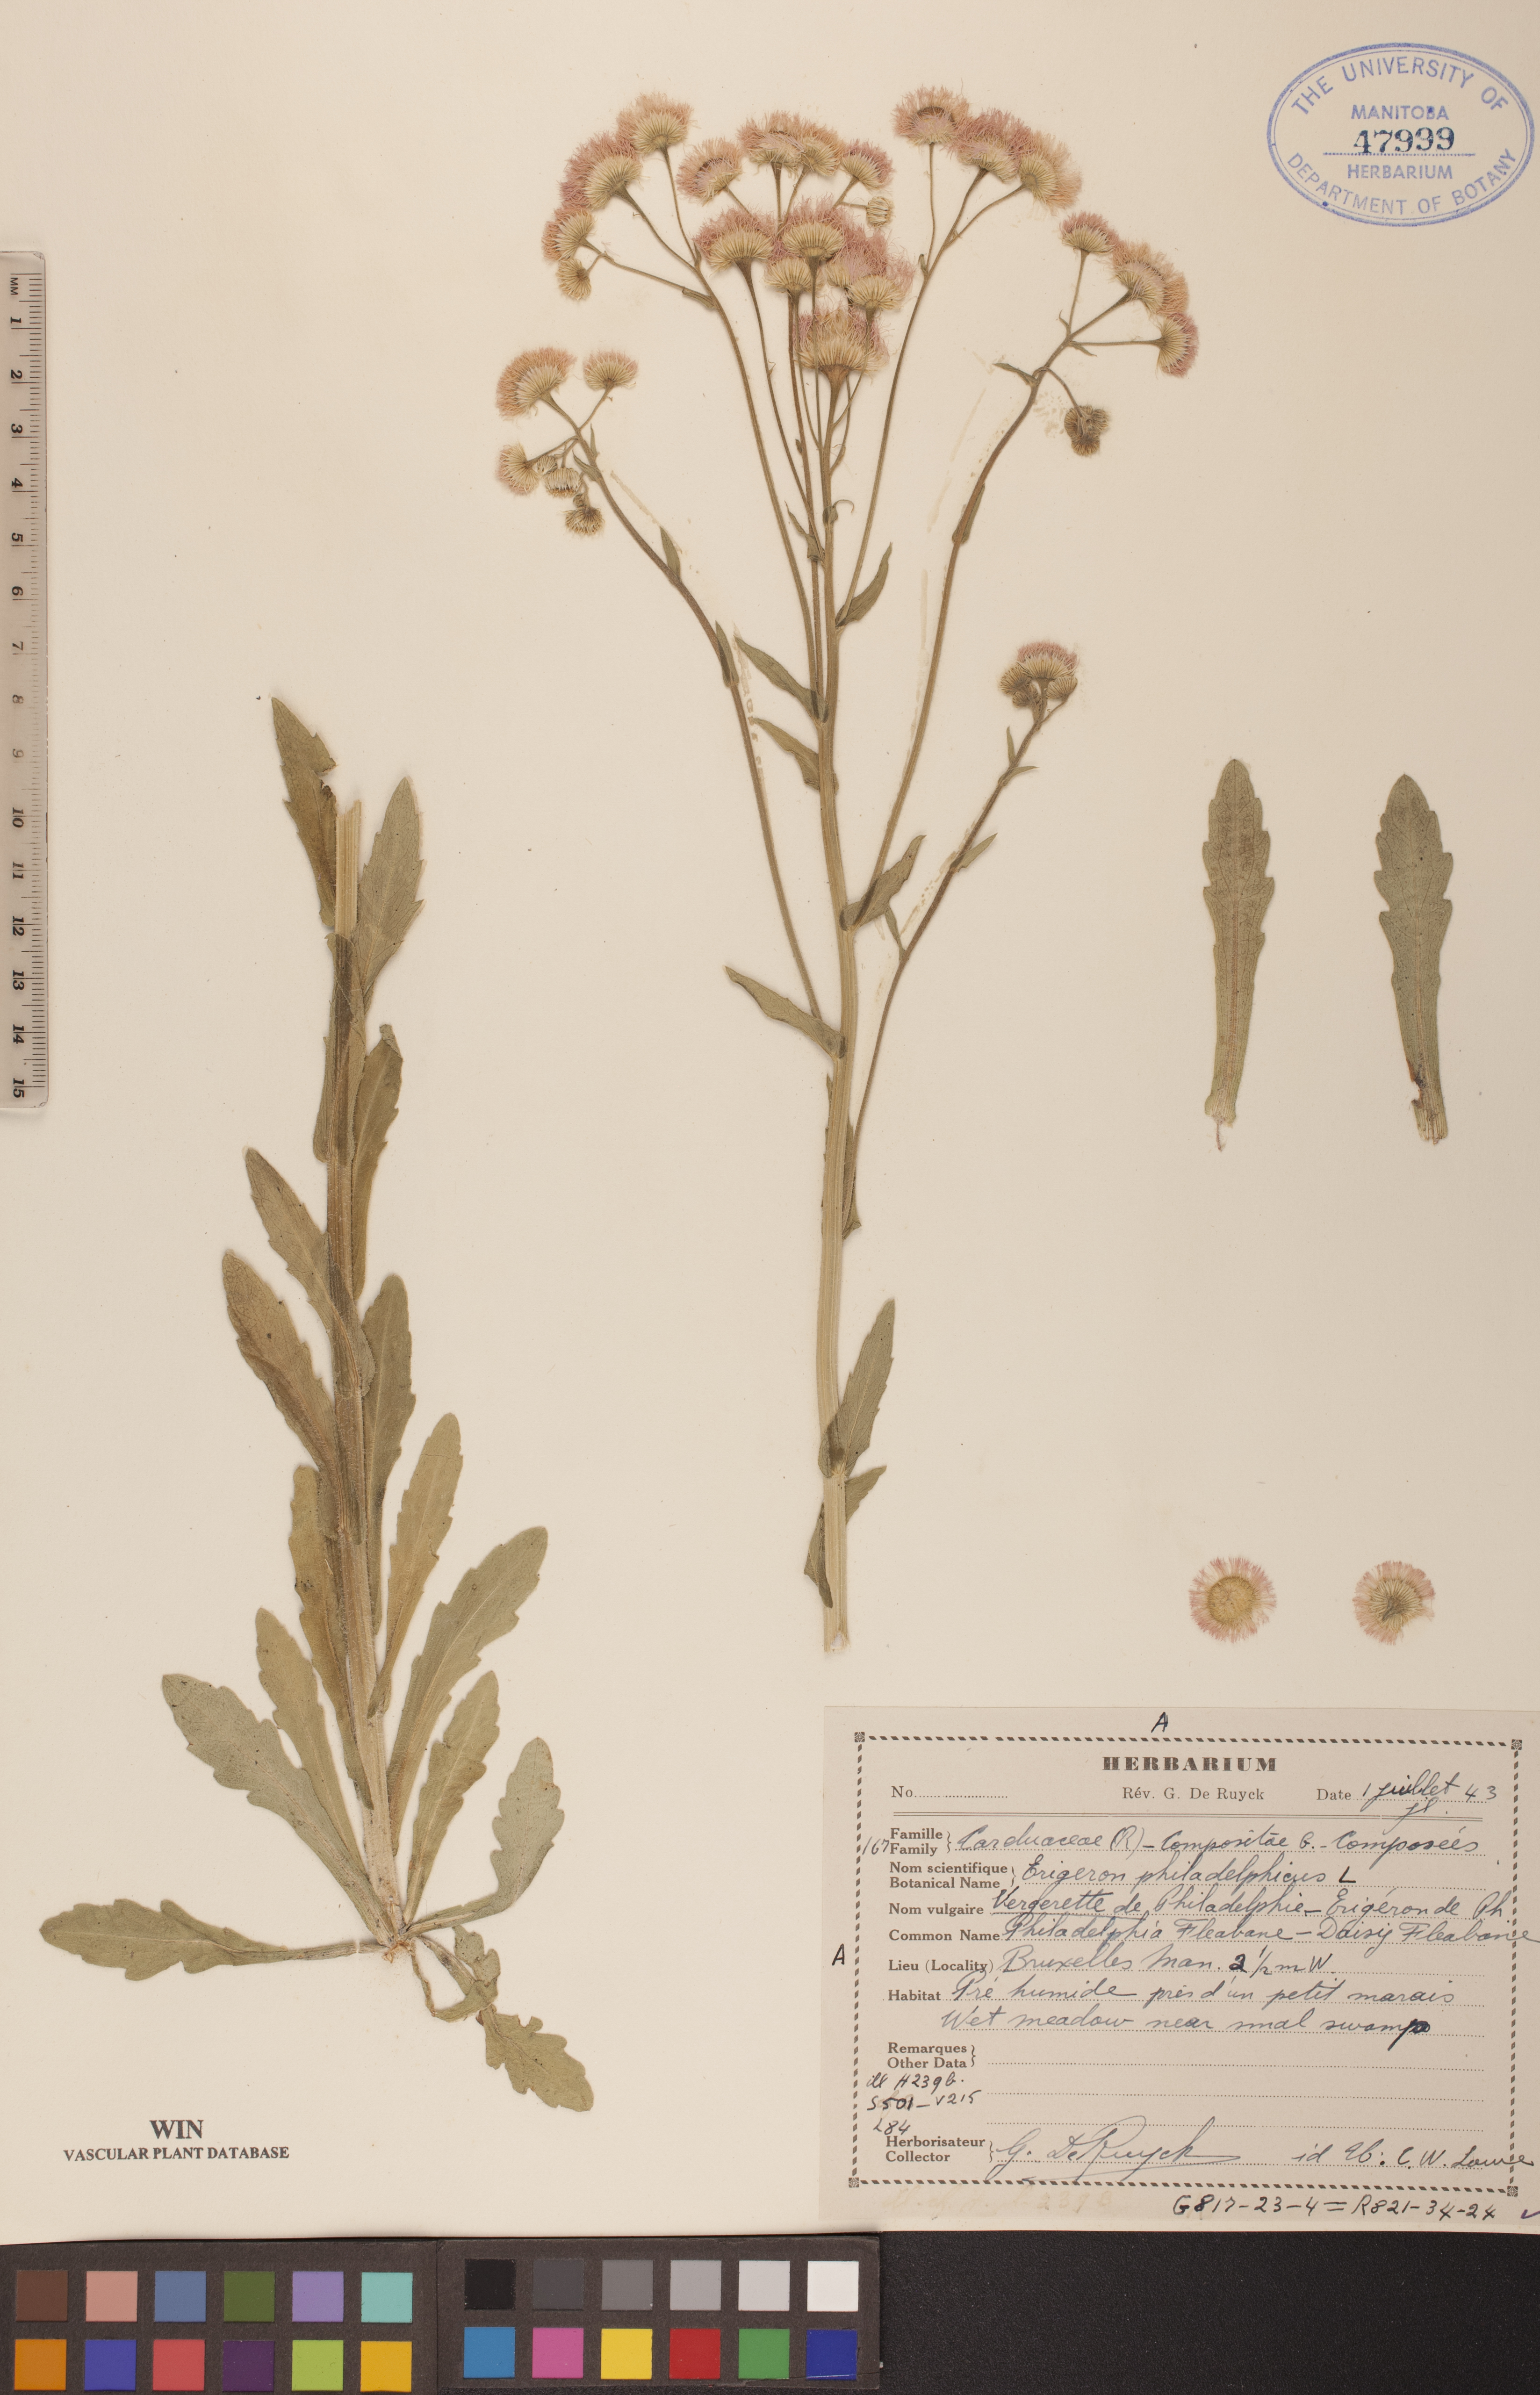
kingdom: Plantae
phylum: Tracheophyta
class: Magnoliopsida
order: Asterales
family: Asteraceae
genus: Erigeron
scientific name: Erigeron philadelphicus
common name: Robin's-plantain
